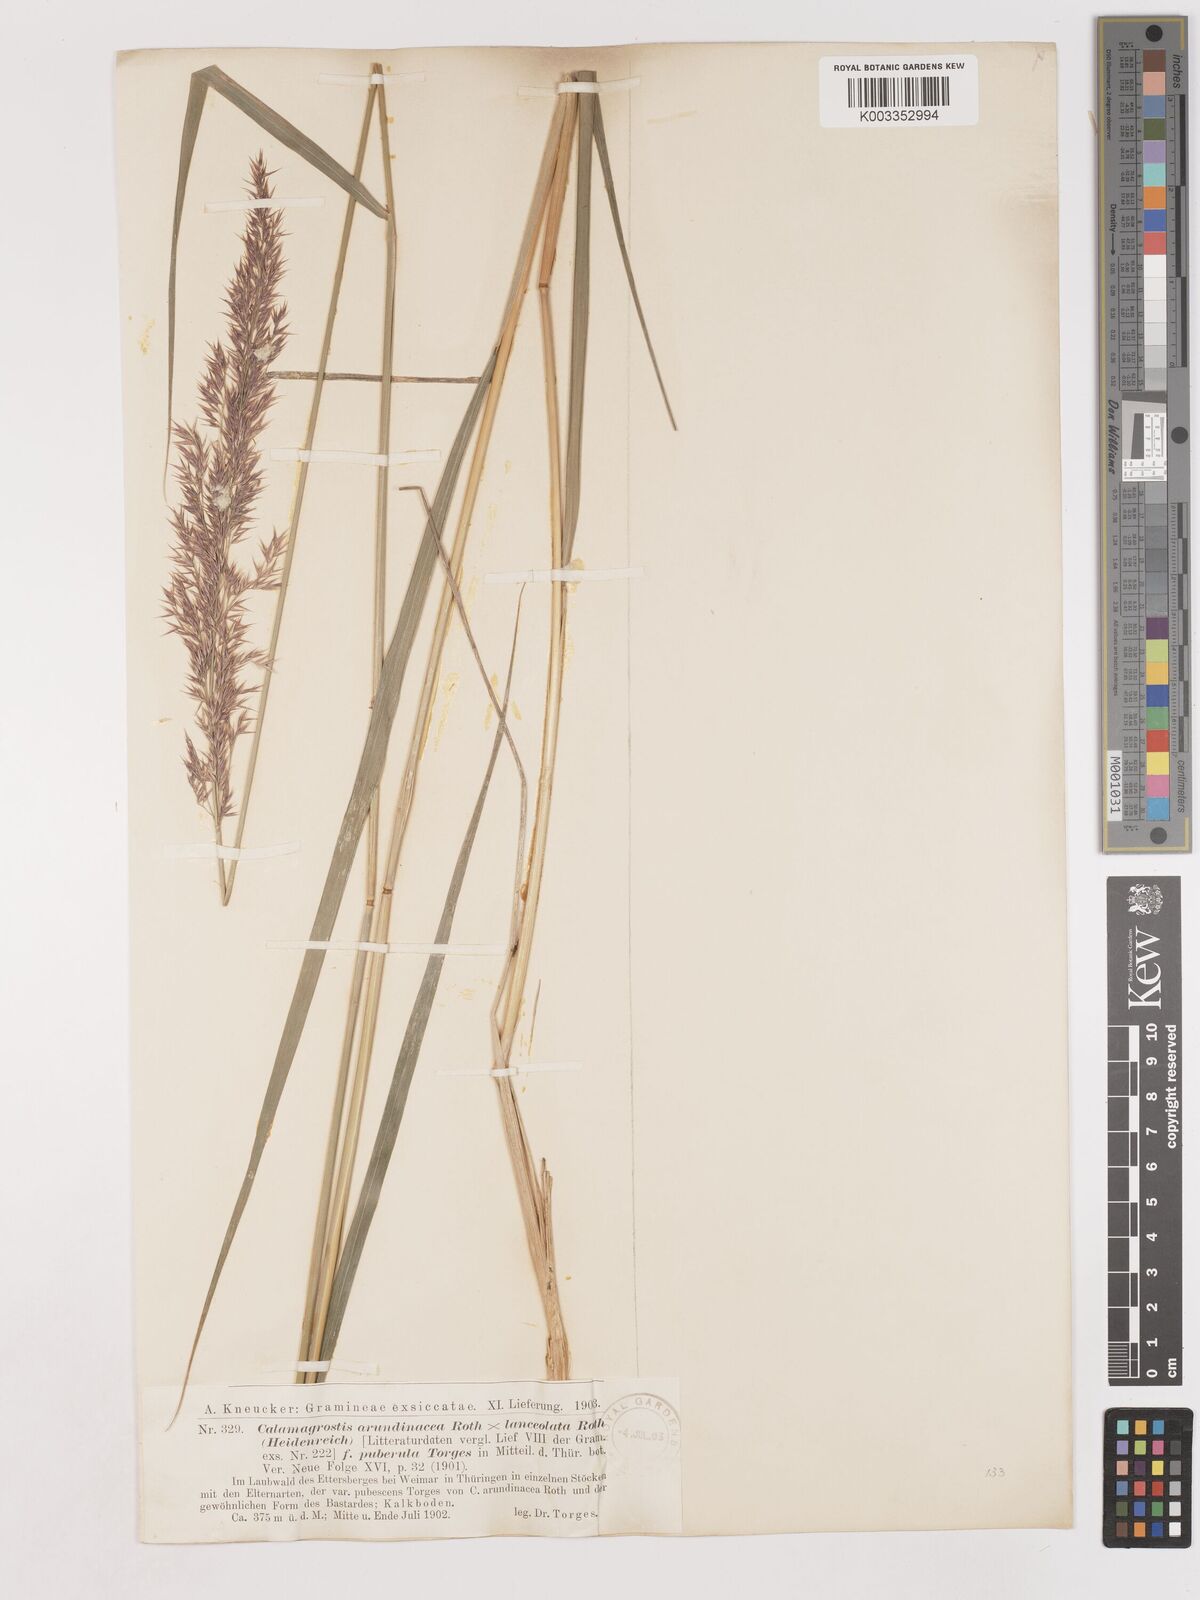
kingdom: Plantae
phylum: Tracheophyta
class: Liliopsida
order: Poales
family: Poaceae
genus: Calamagrostis
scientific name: Calamagrostis canescens
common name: Purple small-reed
